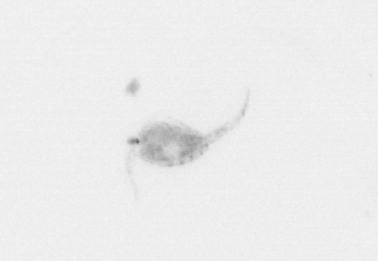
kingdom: Animalia
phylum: Arthropoda
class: Copepoda
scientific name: Copepoda
